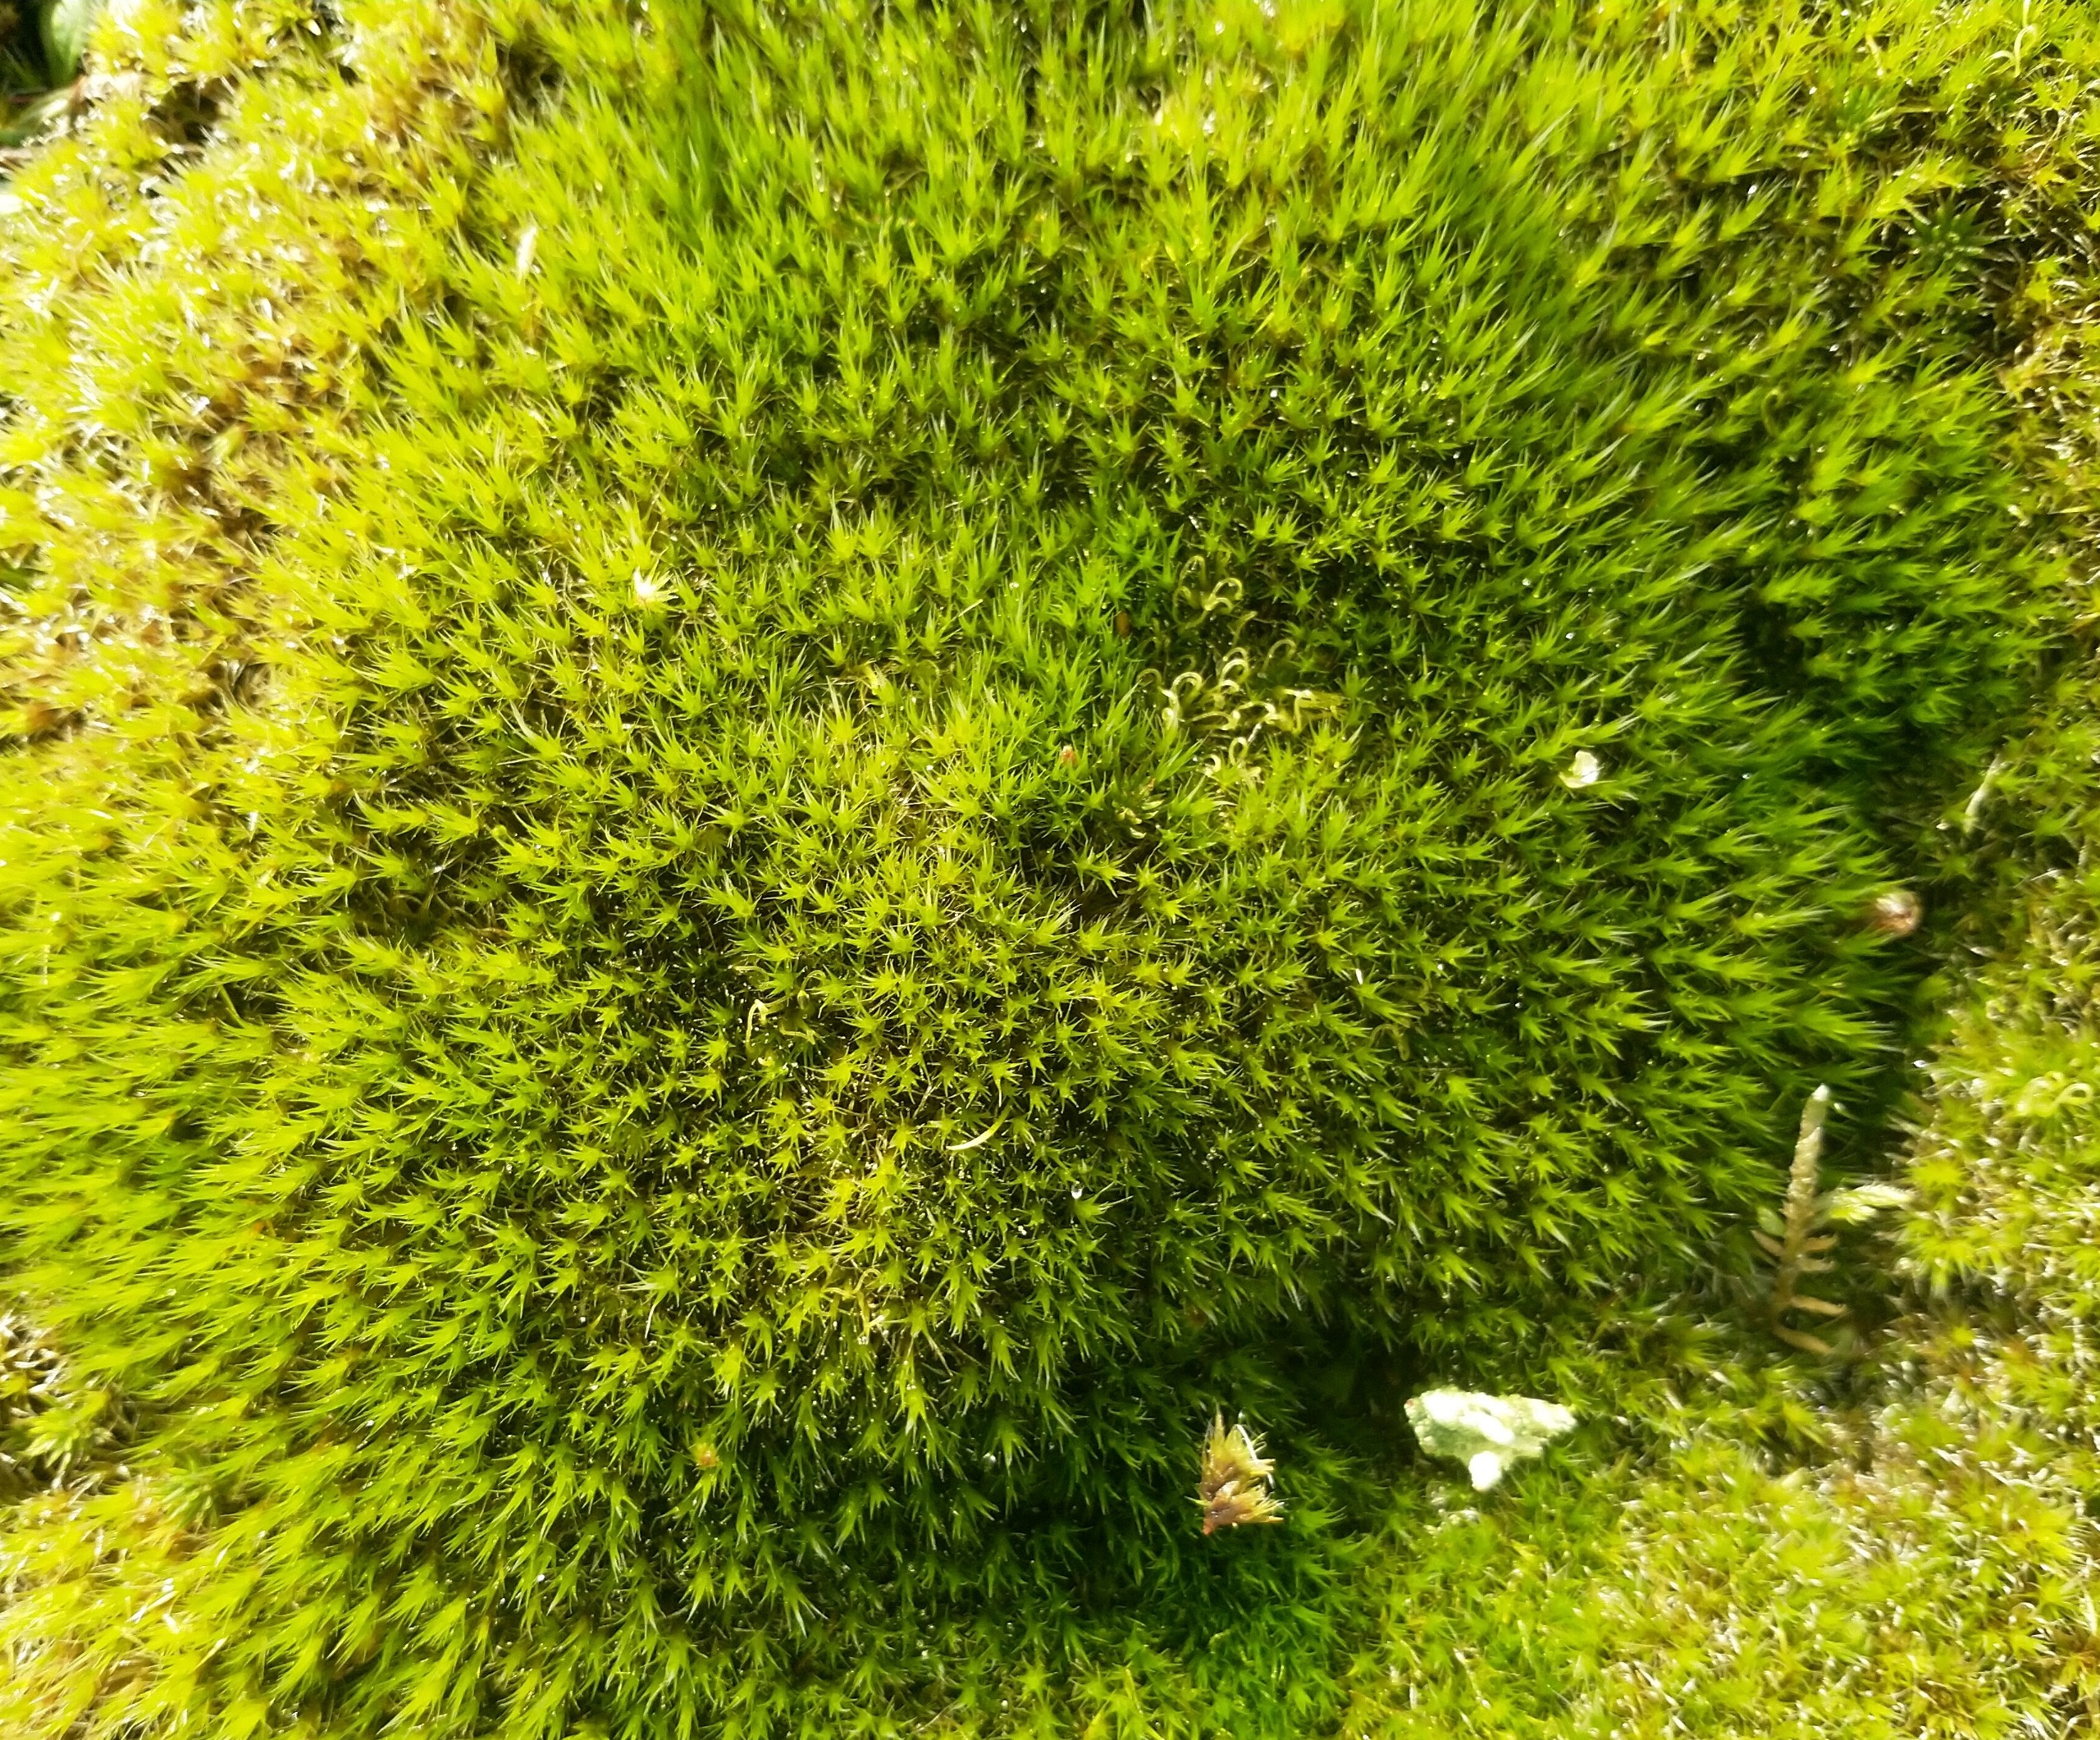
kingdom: Plantae
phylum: Bryophyta
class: Bryopsida
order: Dicranales
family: Leucobryaceae
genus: Campylopus
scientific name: Campylopus introflexus
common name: Stjerne-bredribbe
